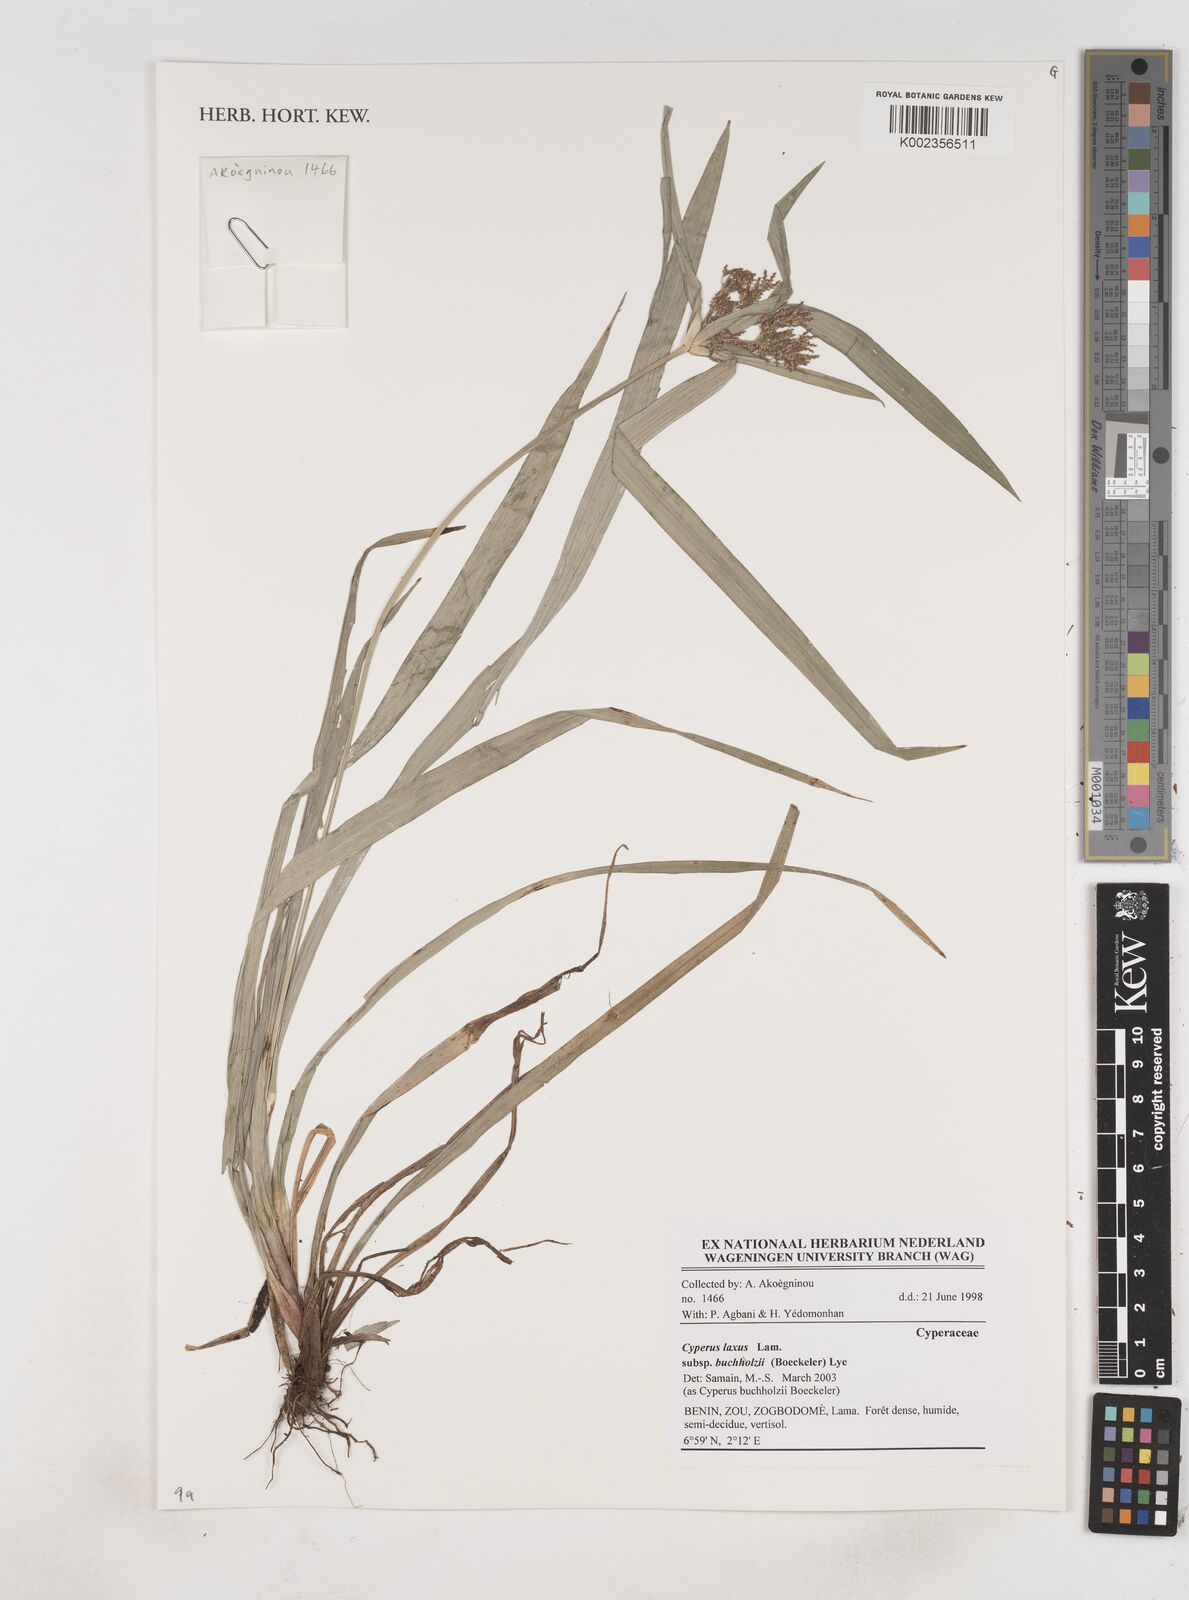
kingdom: Plantae
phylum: Tracheophyta
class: Liliopsida
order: Poales
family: Cyperaceae
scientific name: Cyperaceae
